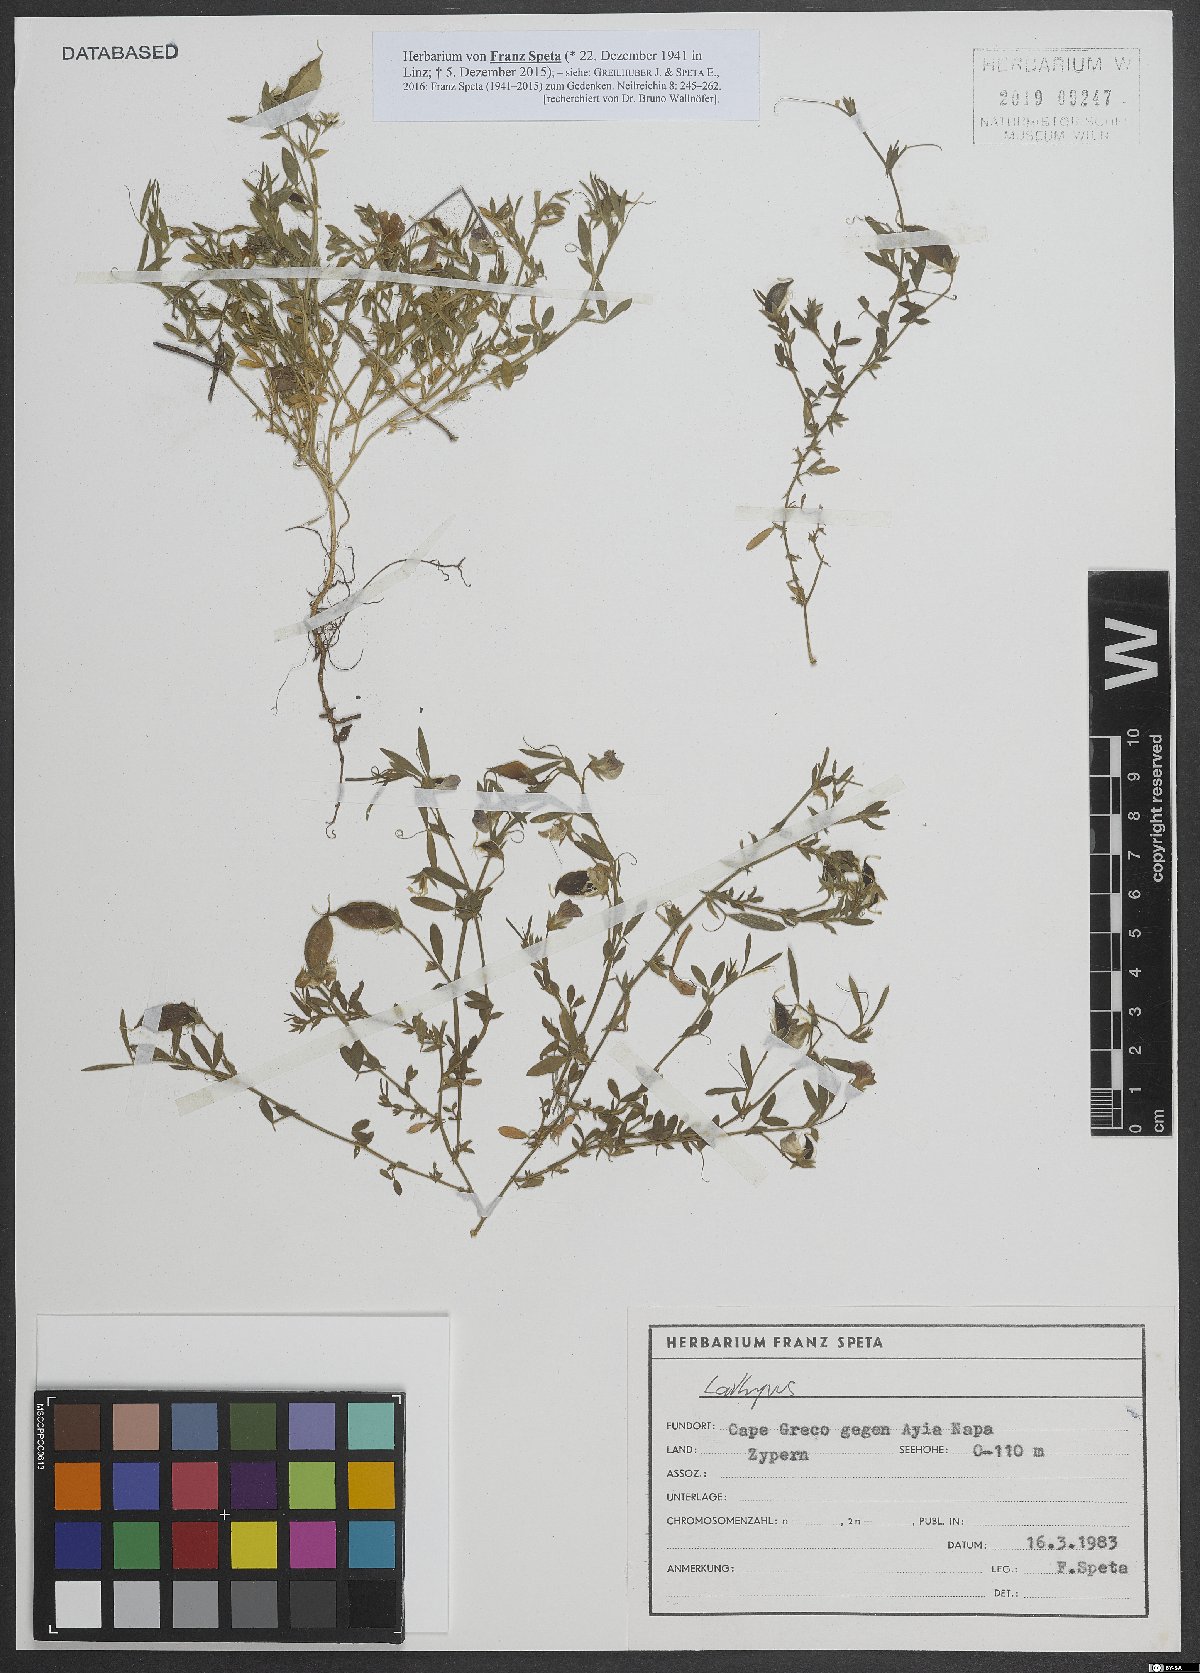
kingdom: Plantae
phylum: Tracheophyta
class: Magnoliopsida
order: Fabales
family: Fabaceae
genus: Lathyrus
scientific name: Lathyrus
